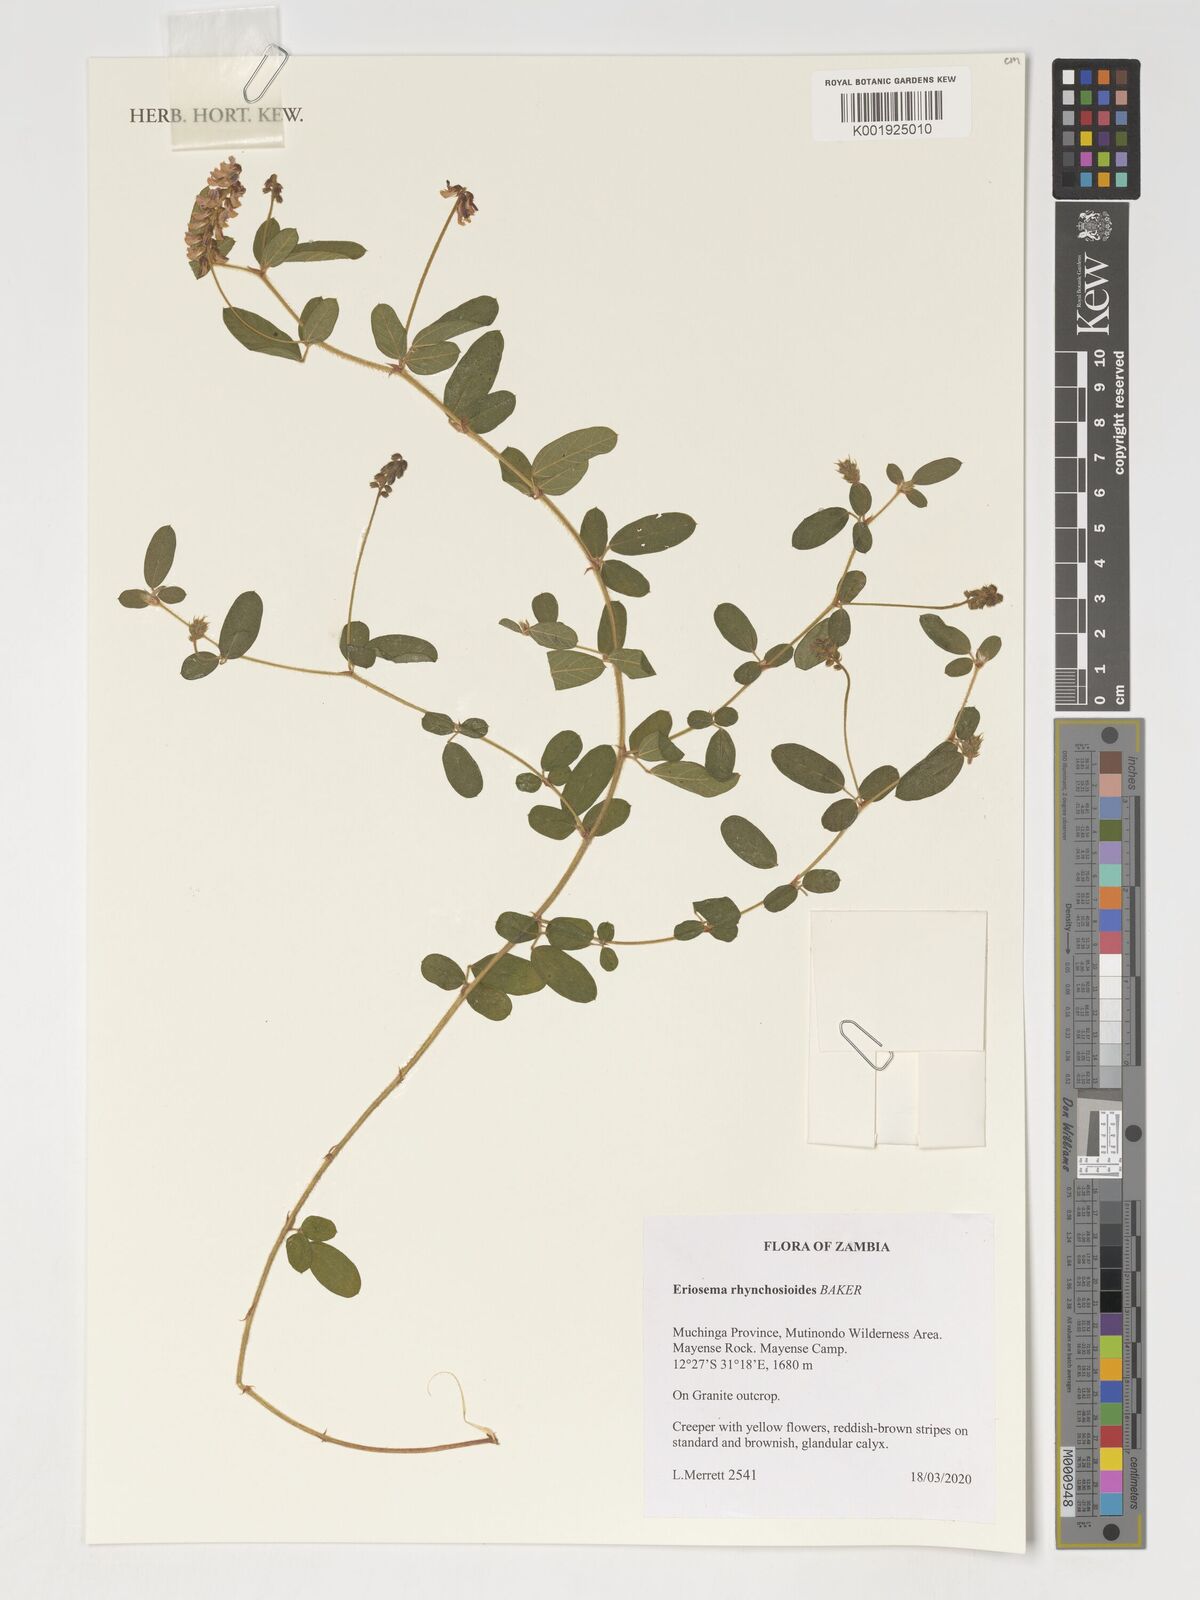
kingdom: Plantae
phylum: Tracheophyta
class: Magnoliopsida
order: Fabales
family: Fabaceae
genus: Eriosema
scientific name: Eriosema rhynchosioides
